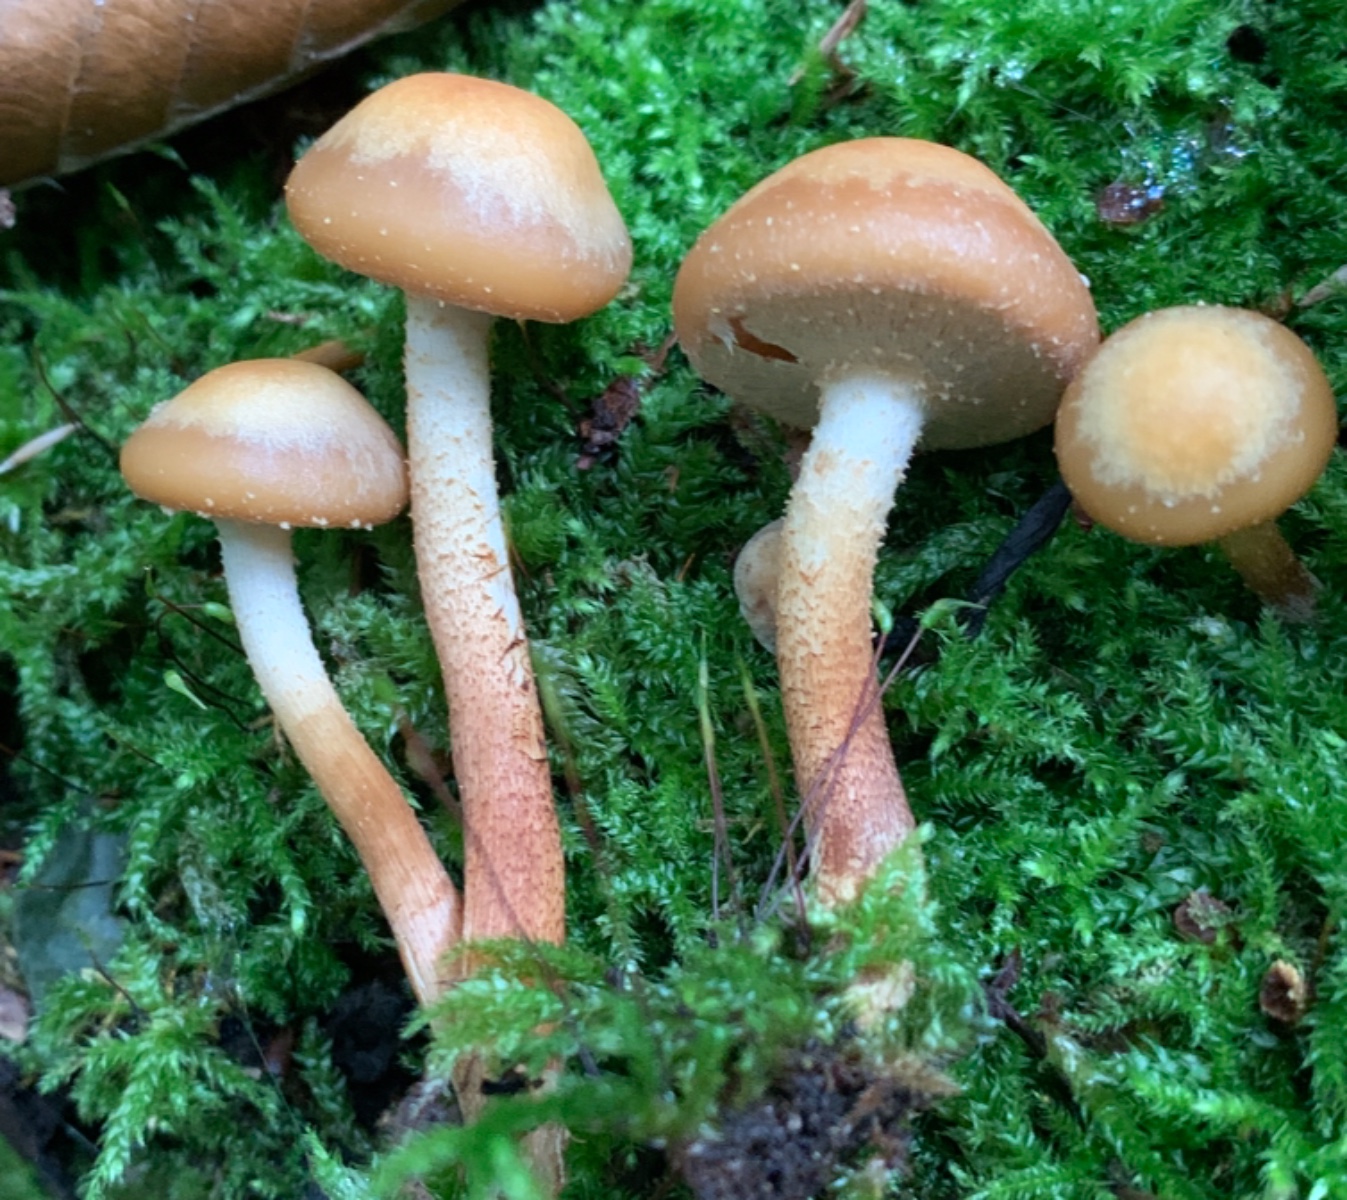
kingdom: Fungi
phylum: Basidiomycota
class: Agaricomycetes
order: Agaricales
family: Strophariaceae
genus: Kuehneromyces
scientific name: Kuehneromyces mutabilis
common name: foranderlig skælhat
